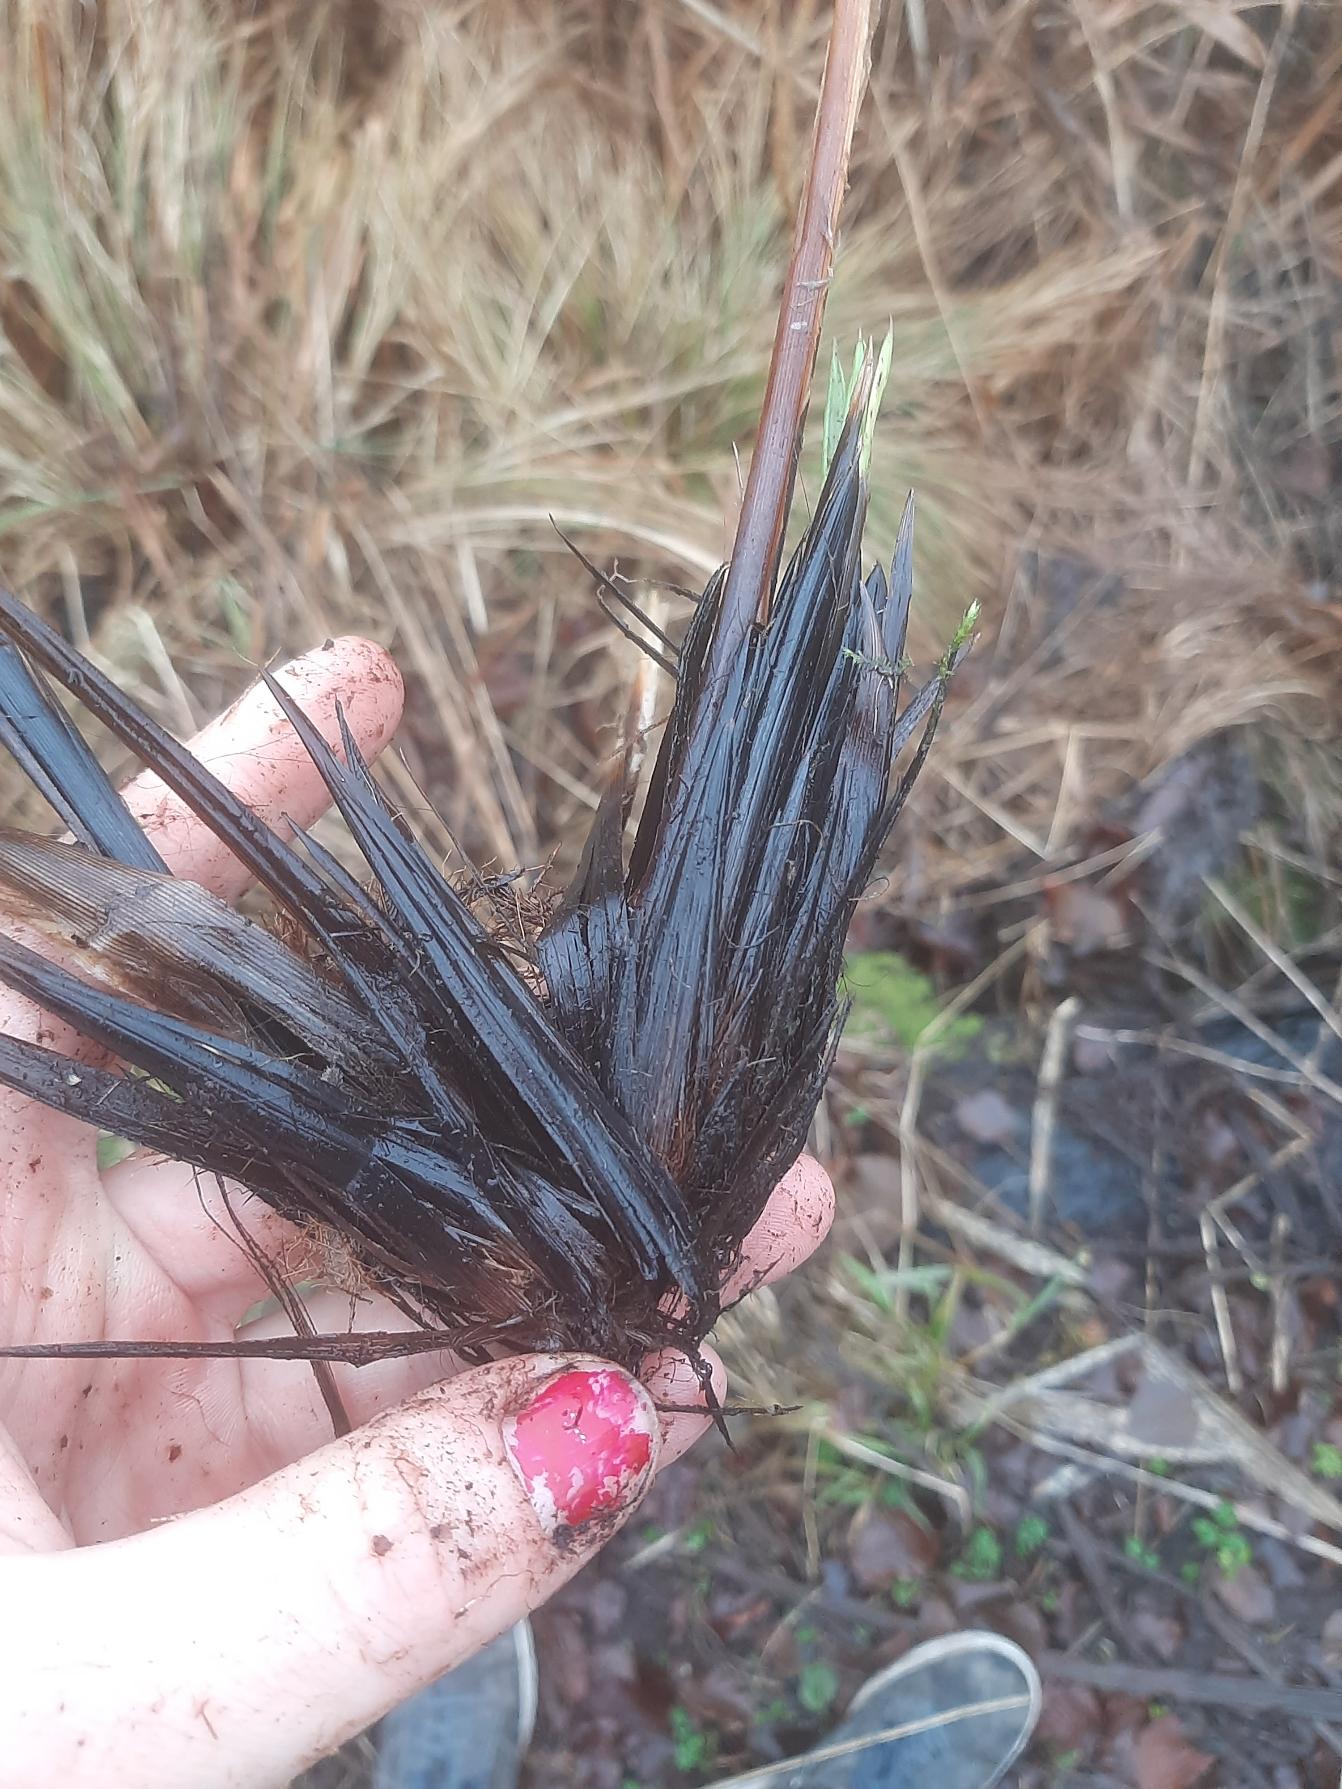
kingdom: Plantae
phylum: Tracheophyta
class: Liliopsida
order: Poales
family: Cyperaceae
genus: Carex
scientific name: Carex appropinquata
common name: Langakset star
